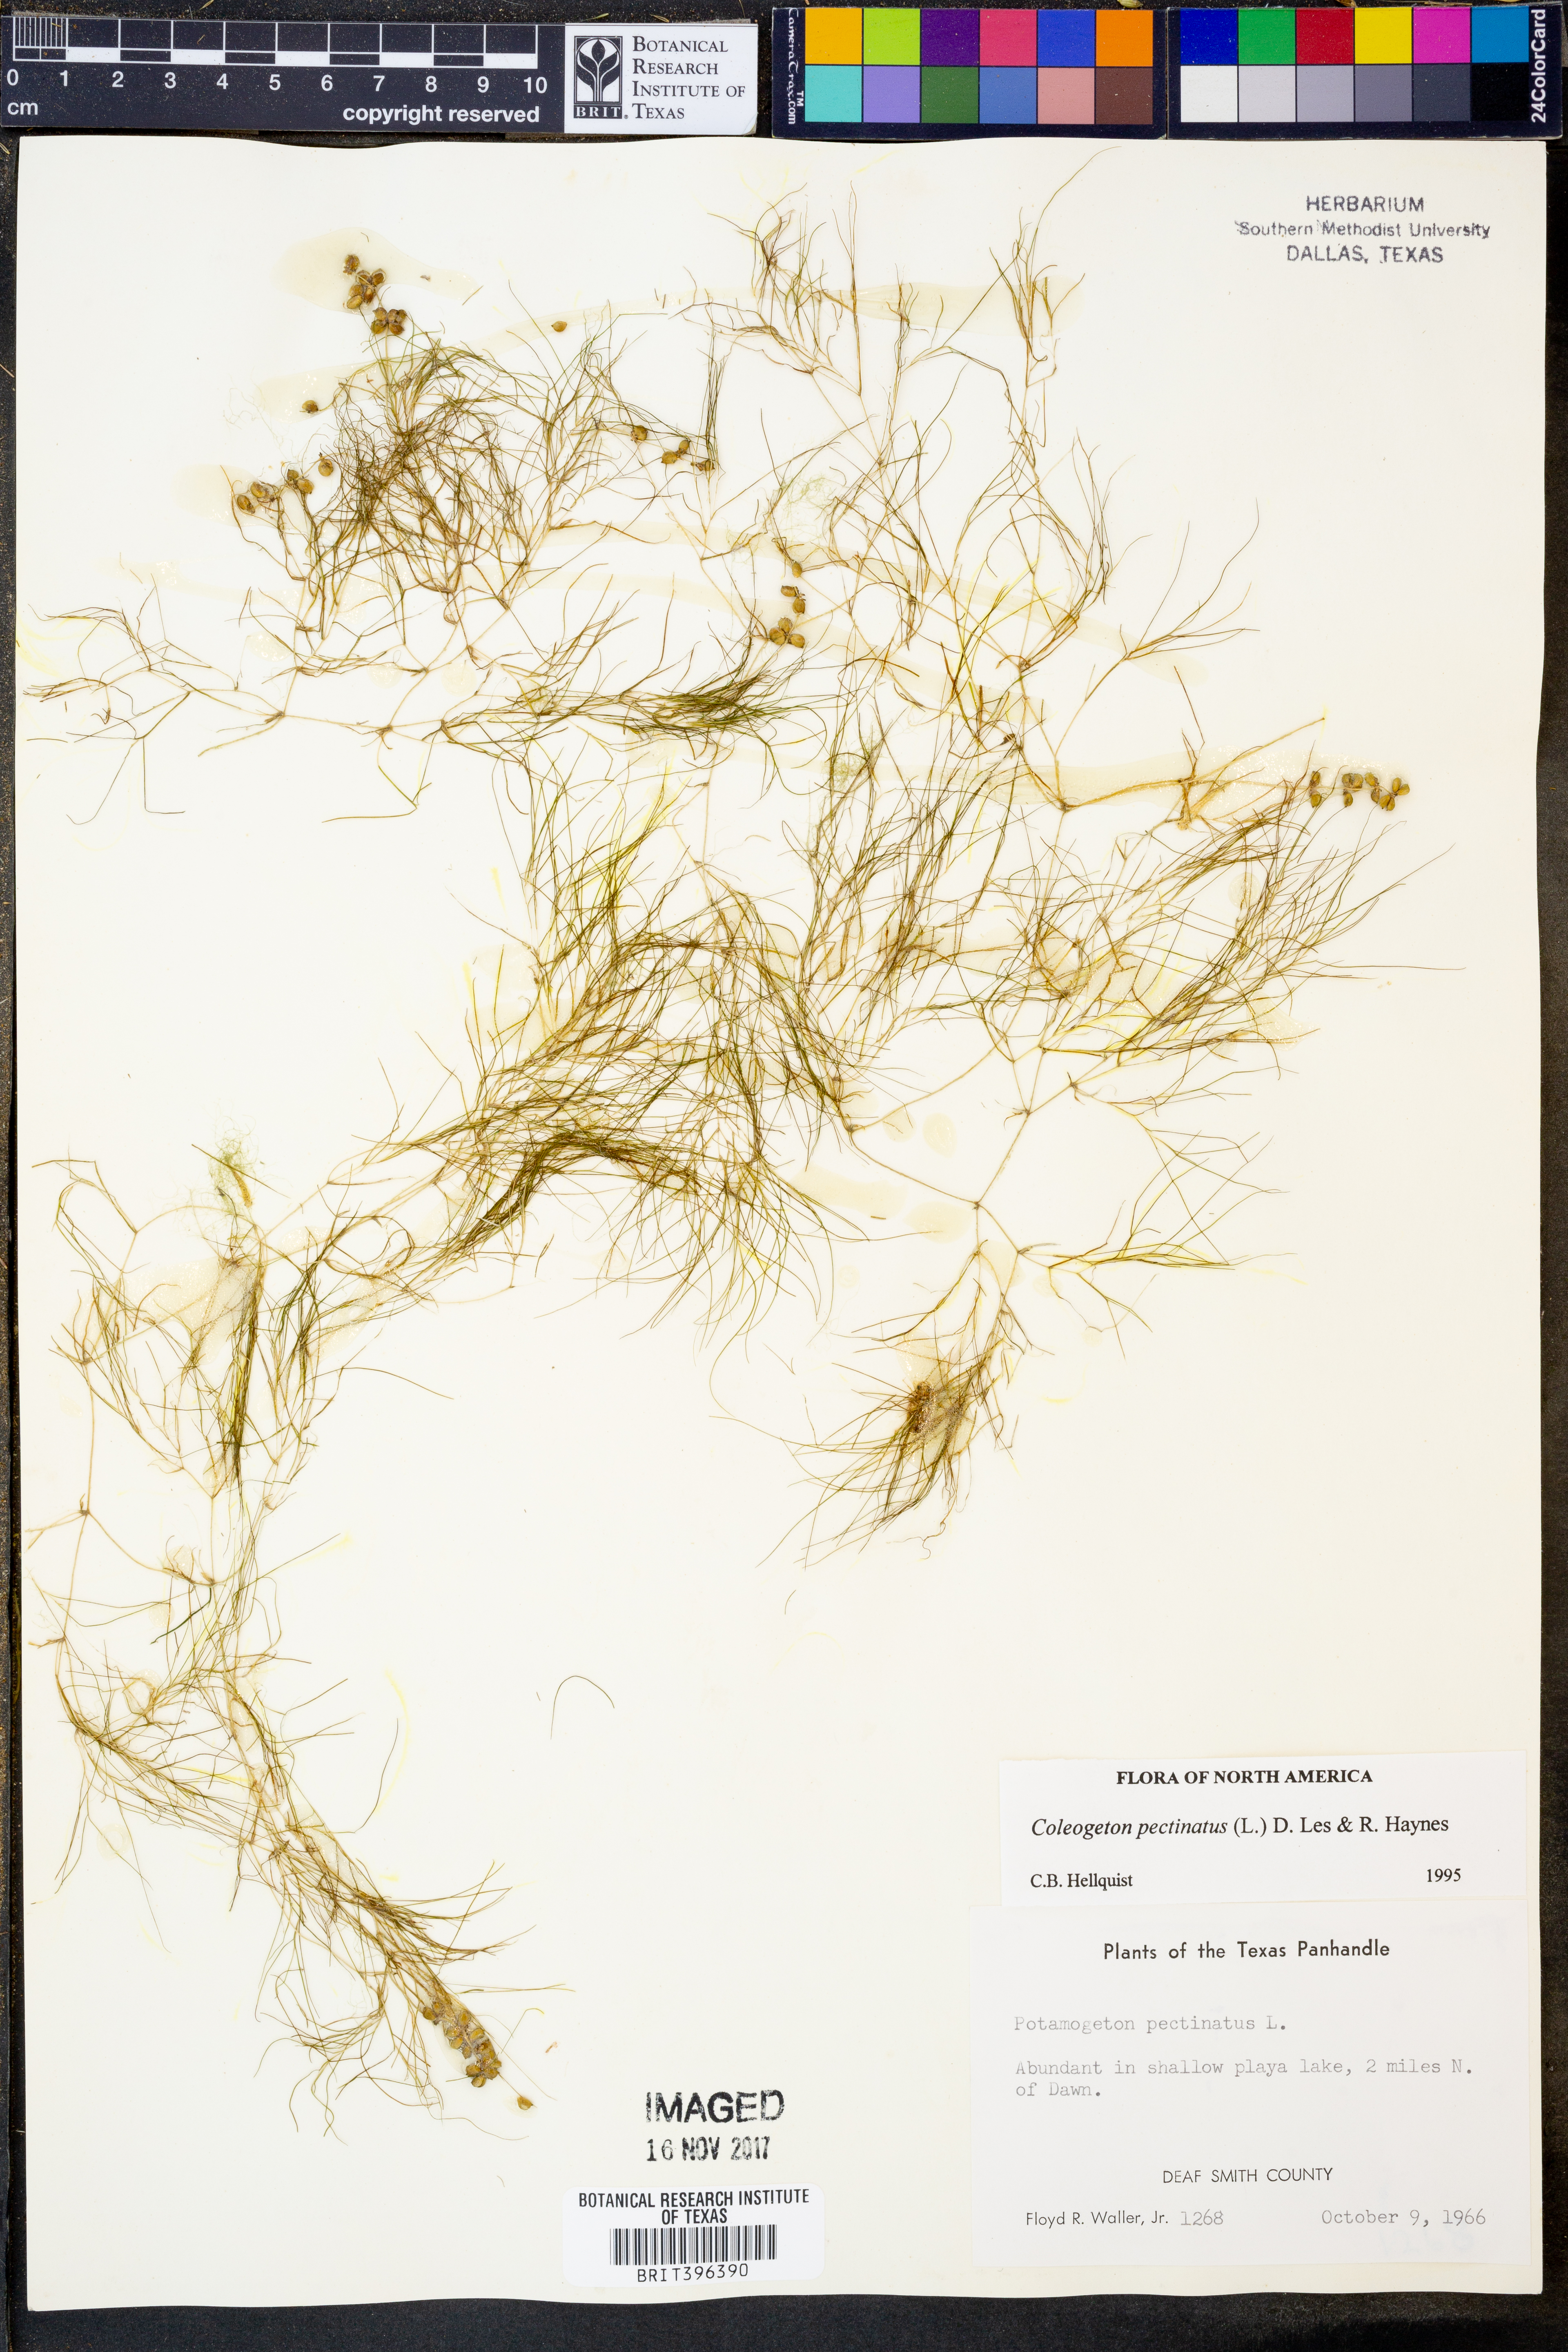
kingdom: Plantae
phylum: Tracheophyta
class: Liliopsida
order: Alismatales
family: Potamogetonaceae
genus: Stuckenia
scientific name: Stuckenia pectinata
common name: Sago pondweed
